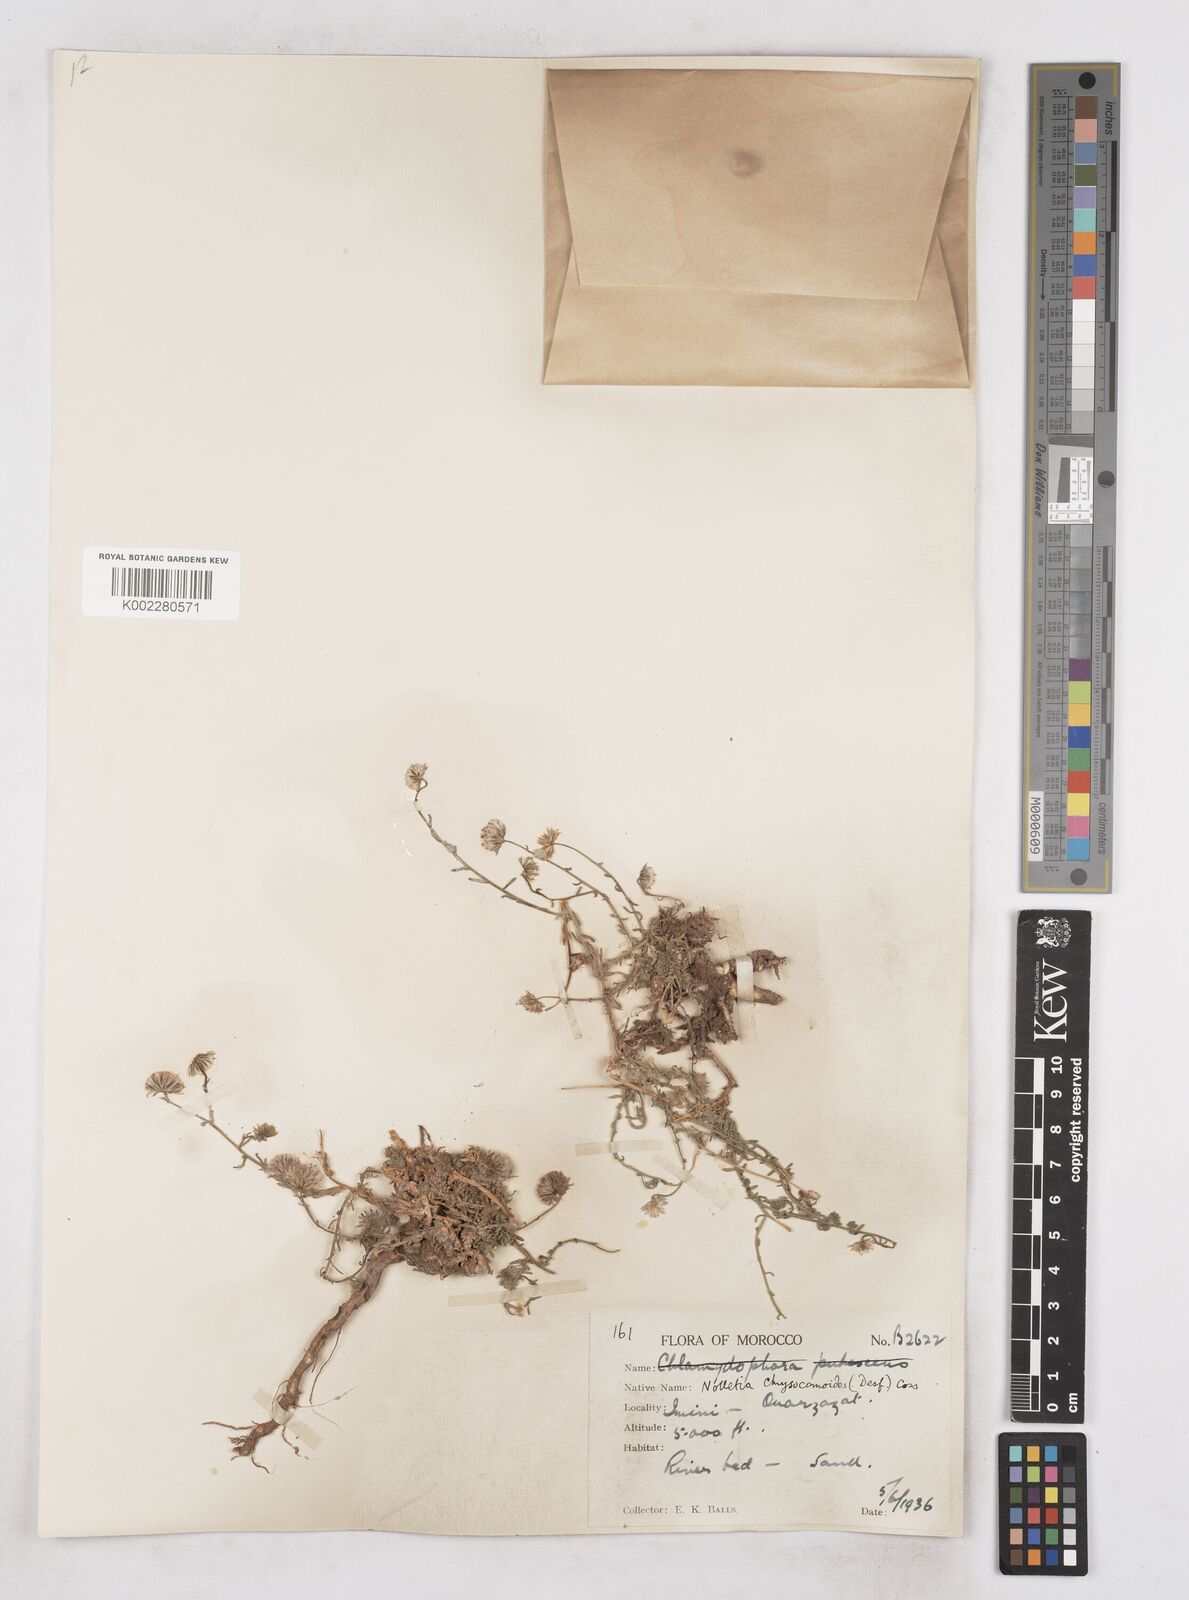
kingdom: Plantae
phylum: Tracheophyta
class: Magnoliopsida
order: Asterales
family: Asteraceae
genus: Nolletia
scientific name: Nolletia chrysocomoides
